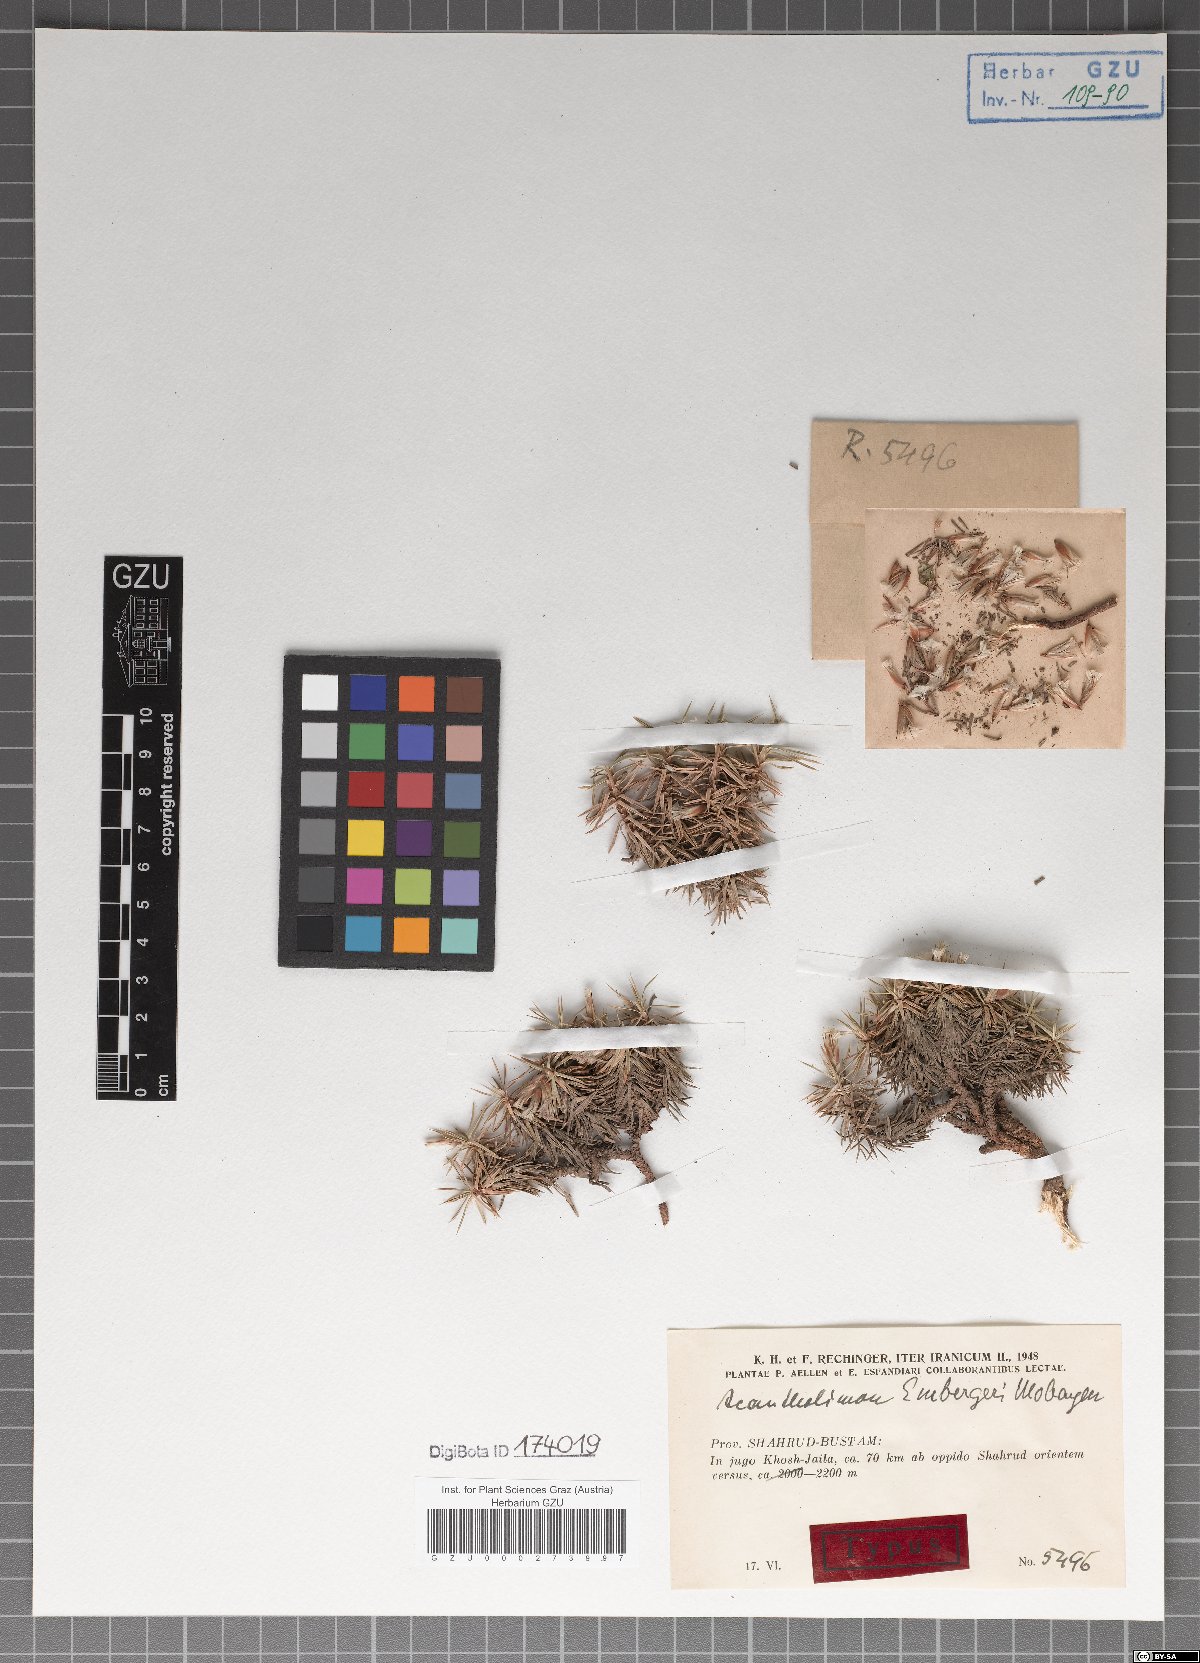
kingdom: Plantae
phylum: Tracheophyta
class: Magnoliopsida
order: Caryophyllales
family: Plumbaginaceae
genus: Acantholimon
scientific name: Acantholimon embergeri
